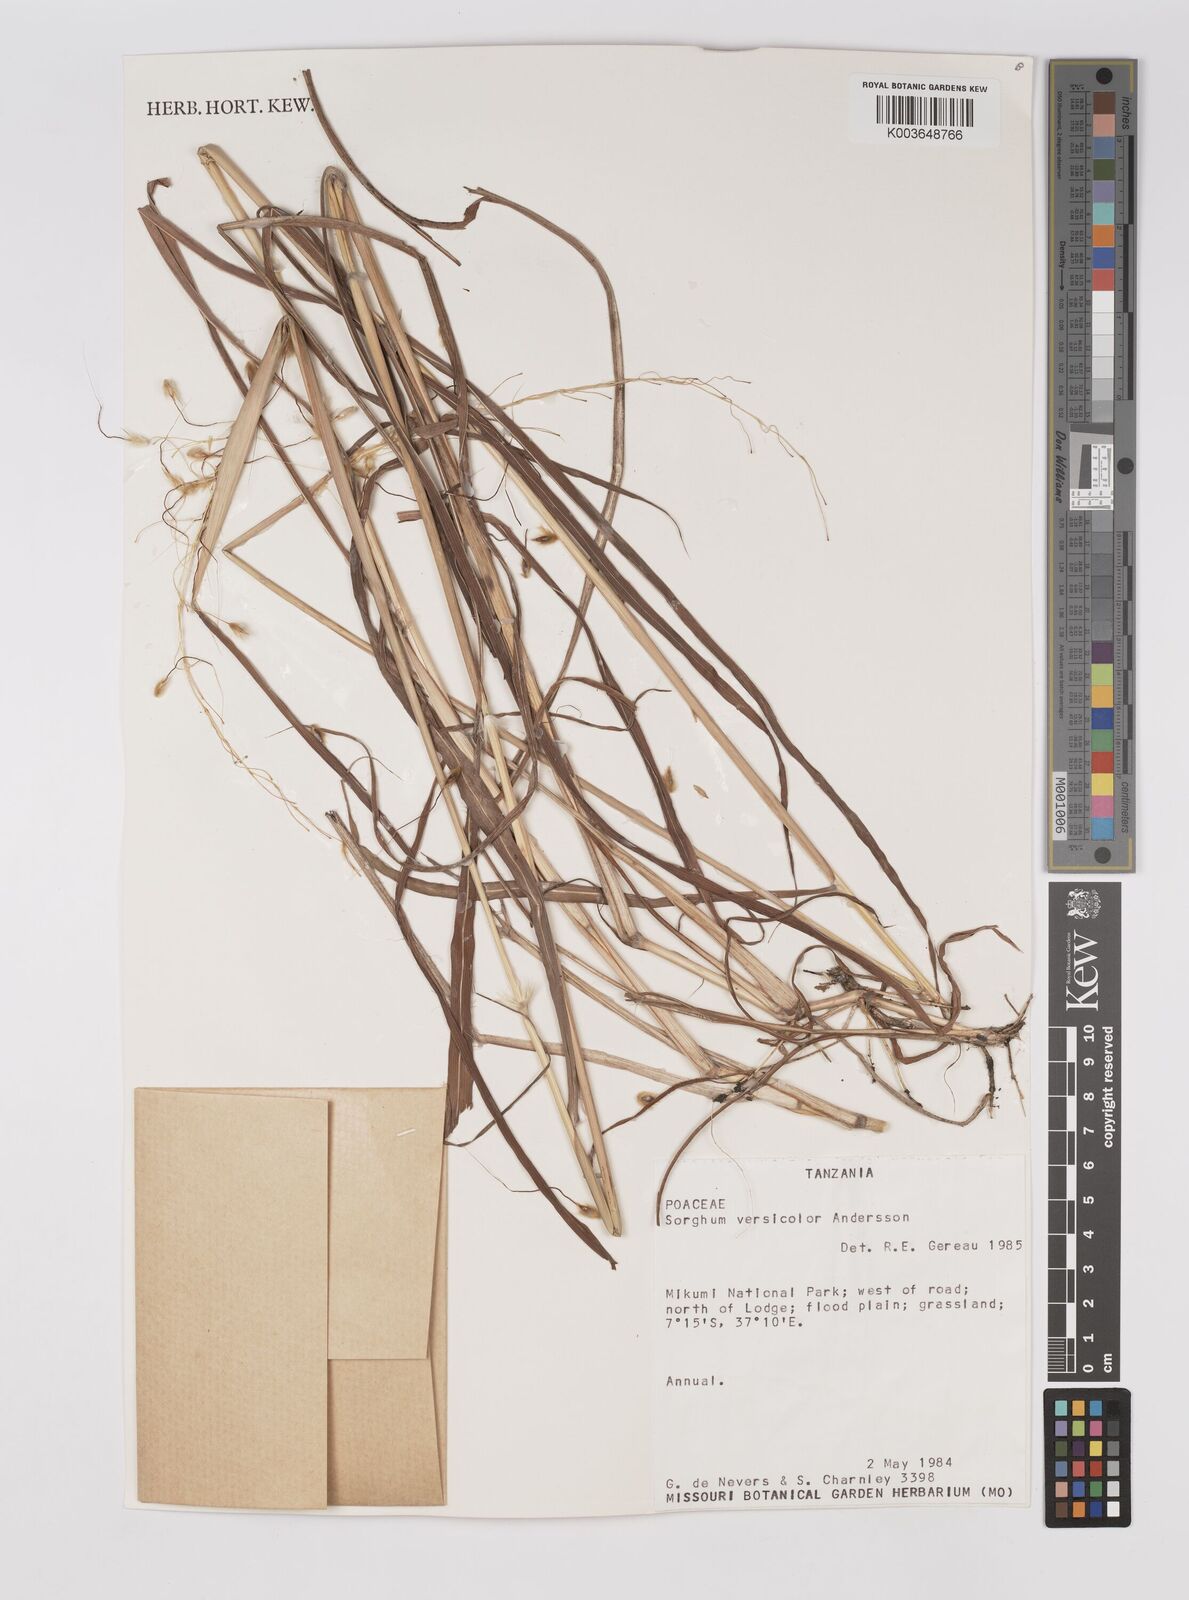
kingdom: Plantae
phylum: Tracheophyta
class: Liliopsida
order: Poales
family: Poaceae
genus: Sarga
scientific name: Sarga versicolor
